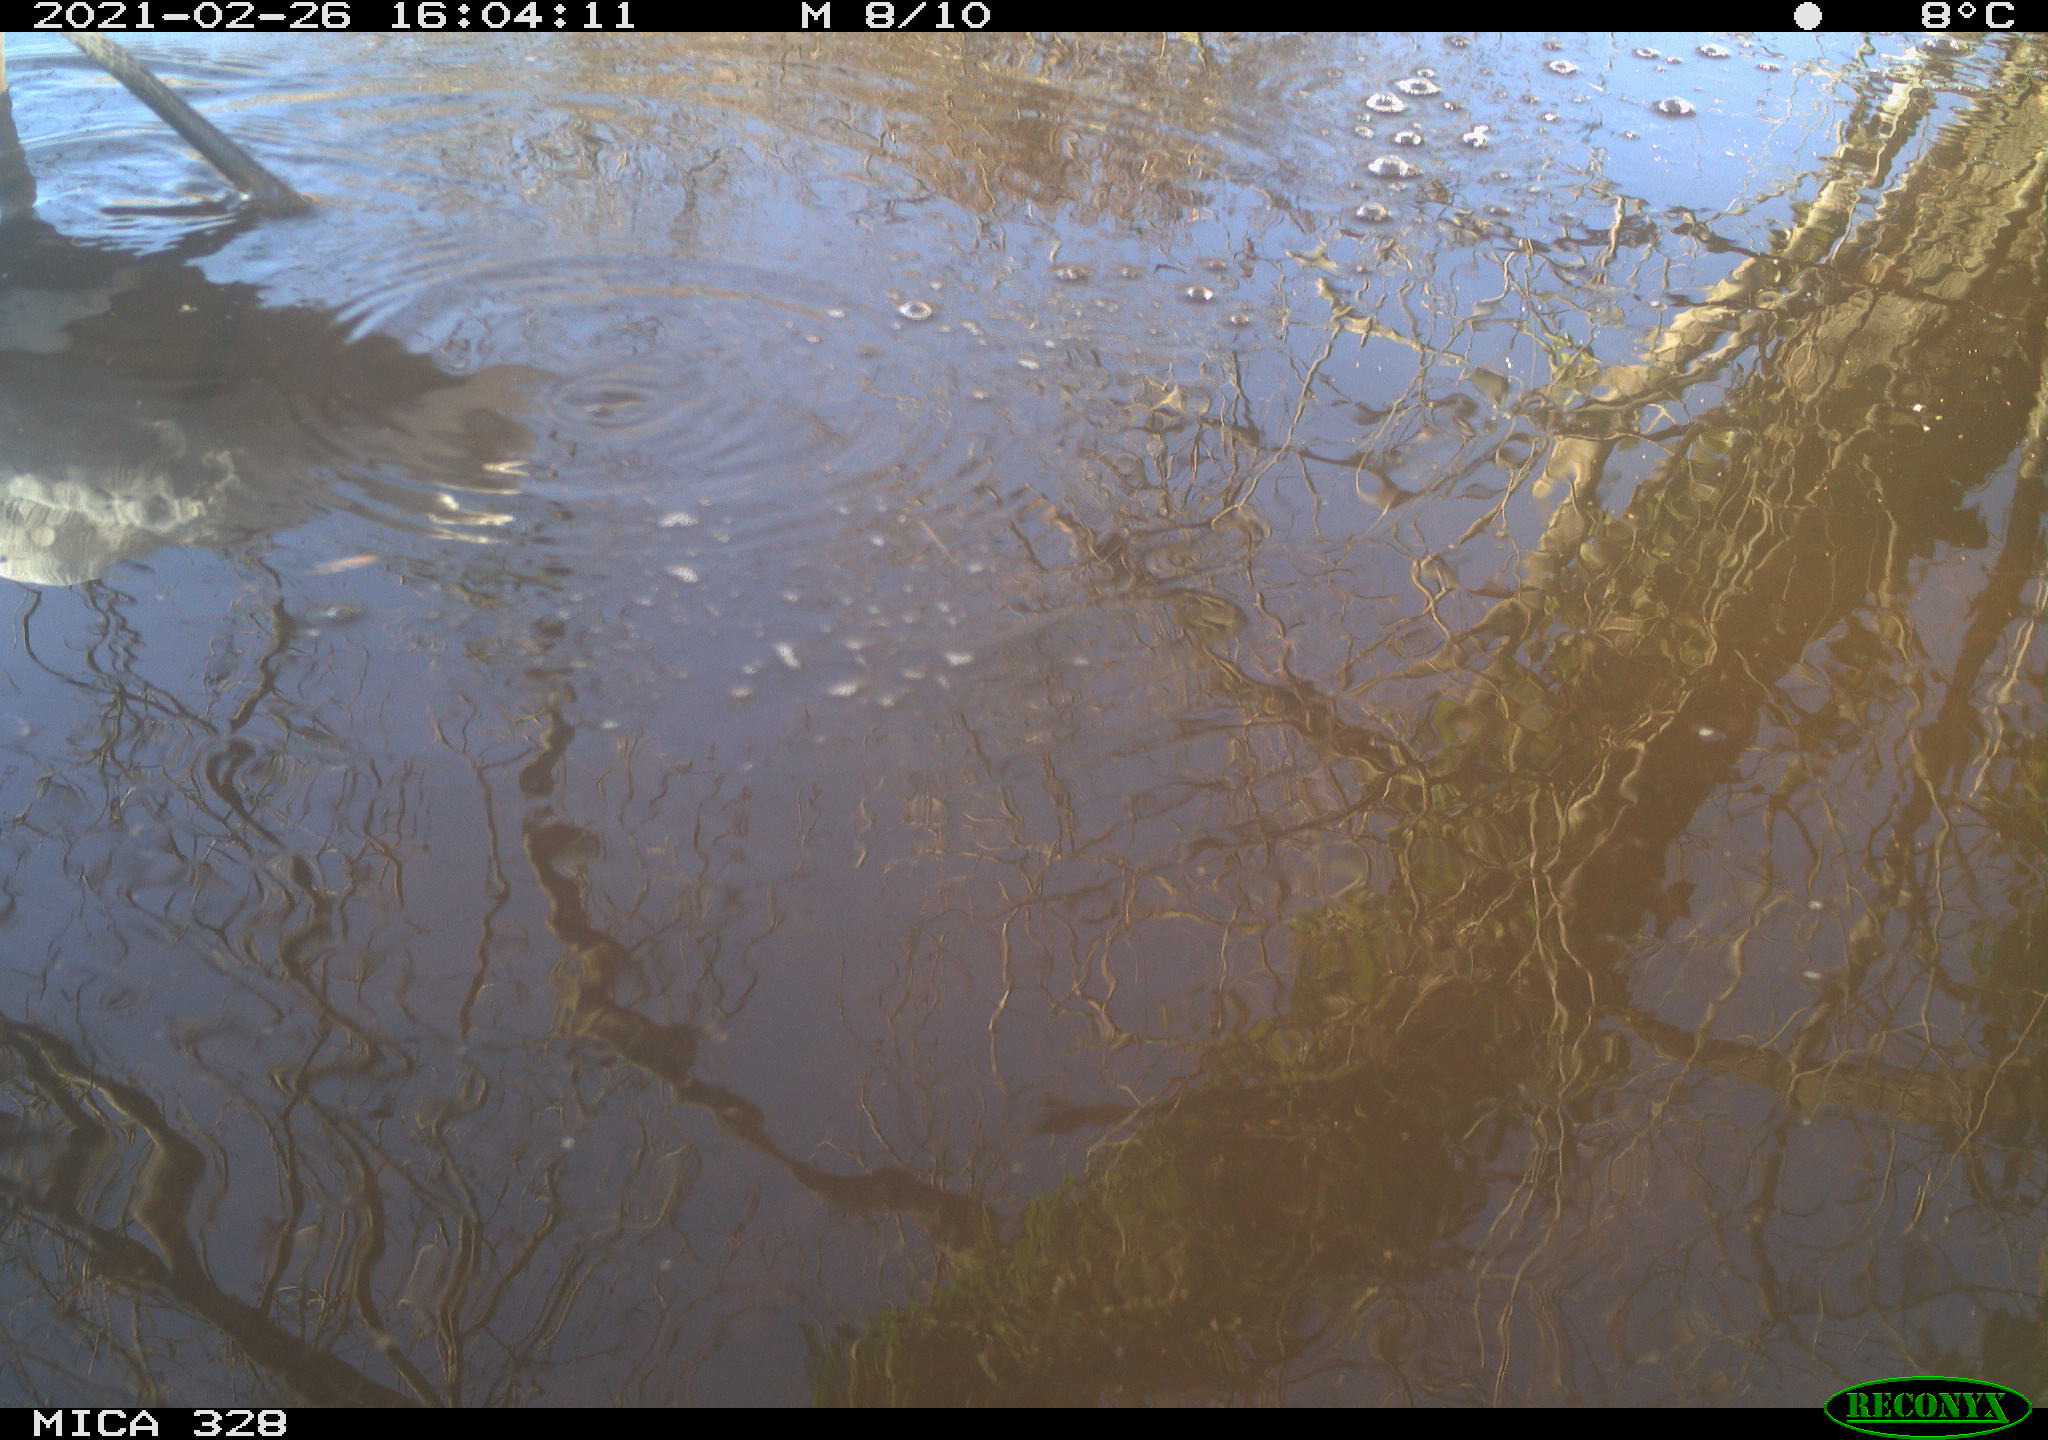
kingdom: Animalia
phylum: Chordata
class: Aves
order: Pelecaniformes
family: Ardeidae
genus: Ardea
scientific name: Ardea alba
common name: Great egret
